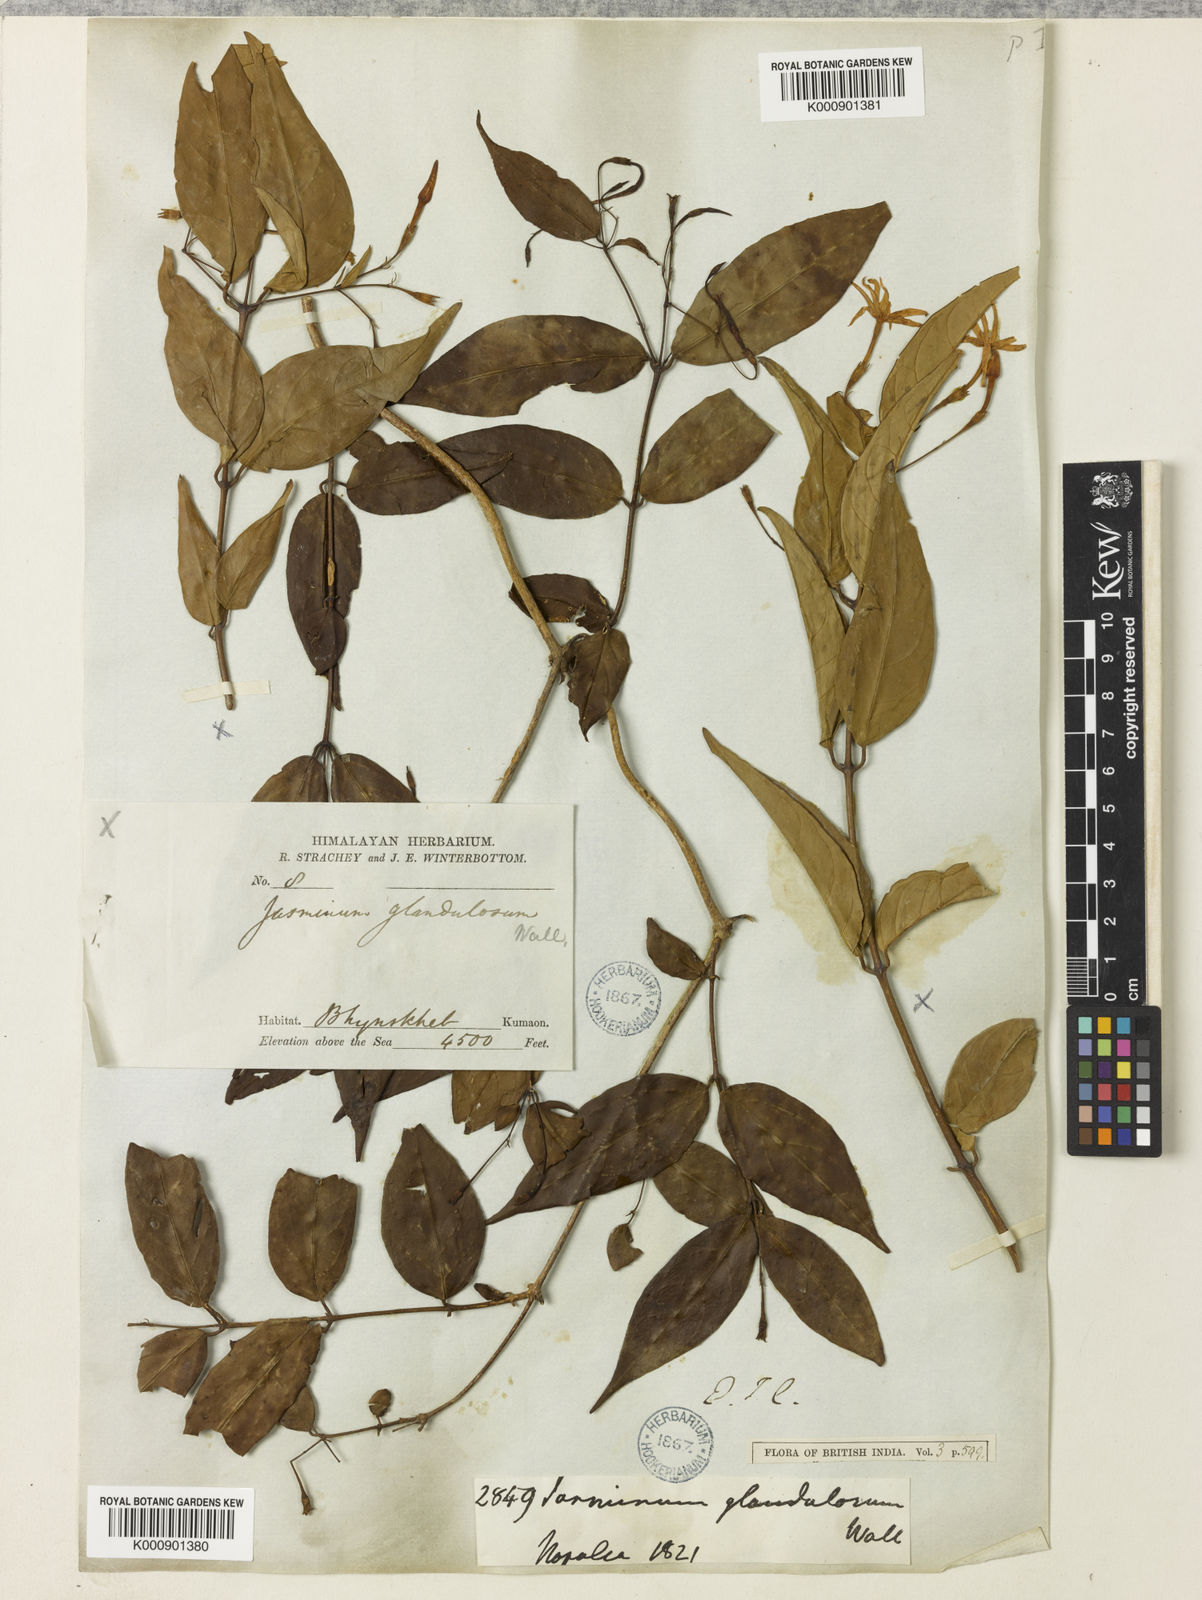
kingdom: Plantae
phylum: Tracheophyta
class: Magnoliopsida
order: Lamiales
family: Oleaceae
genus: Jasminum
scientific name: Jasminum nepalense
